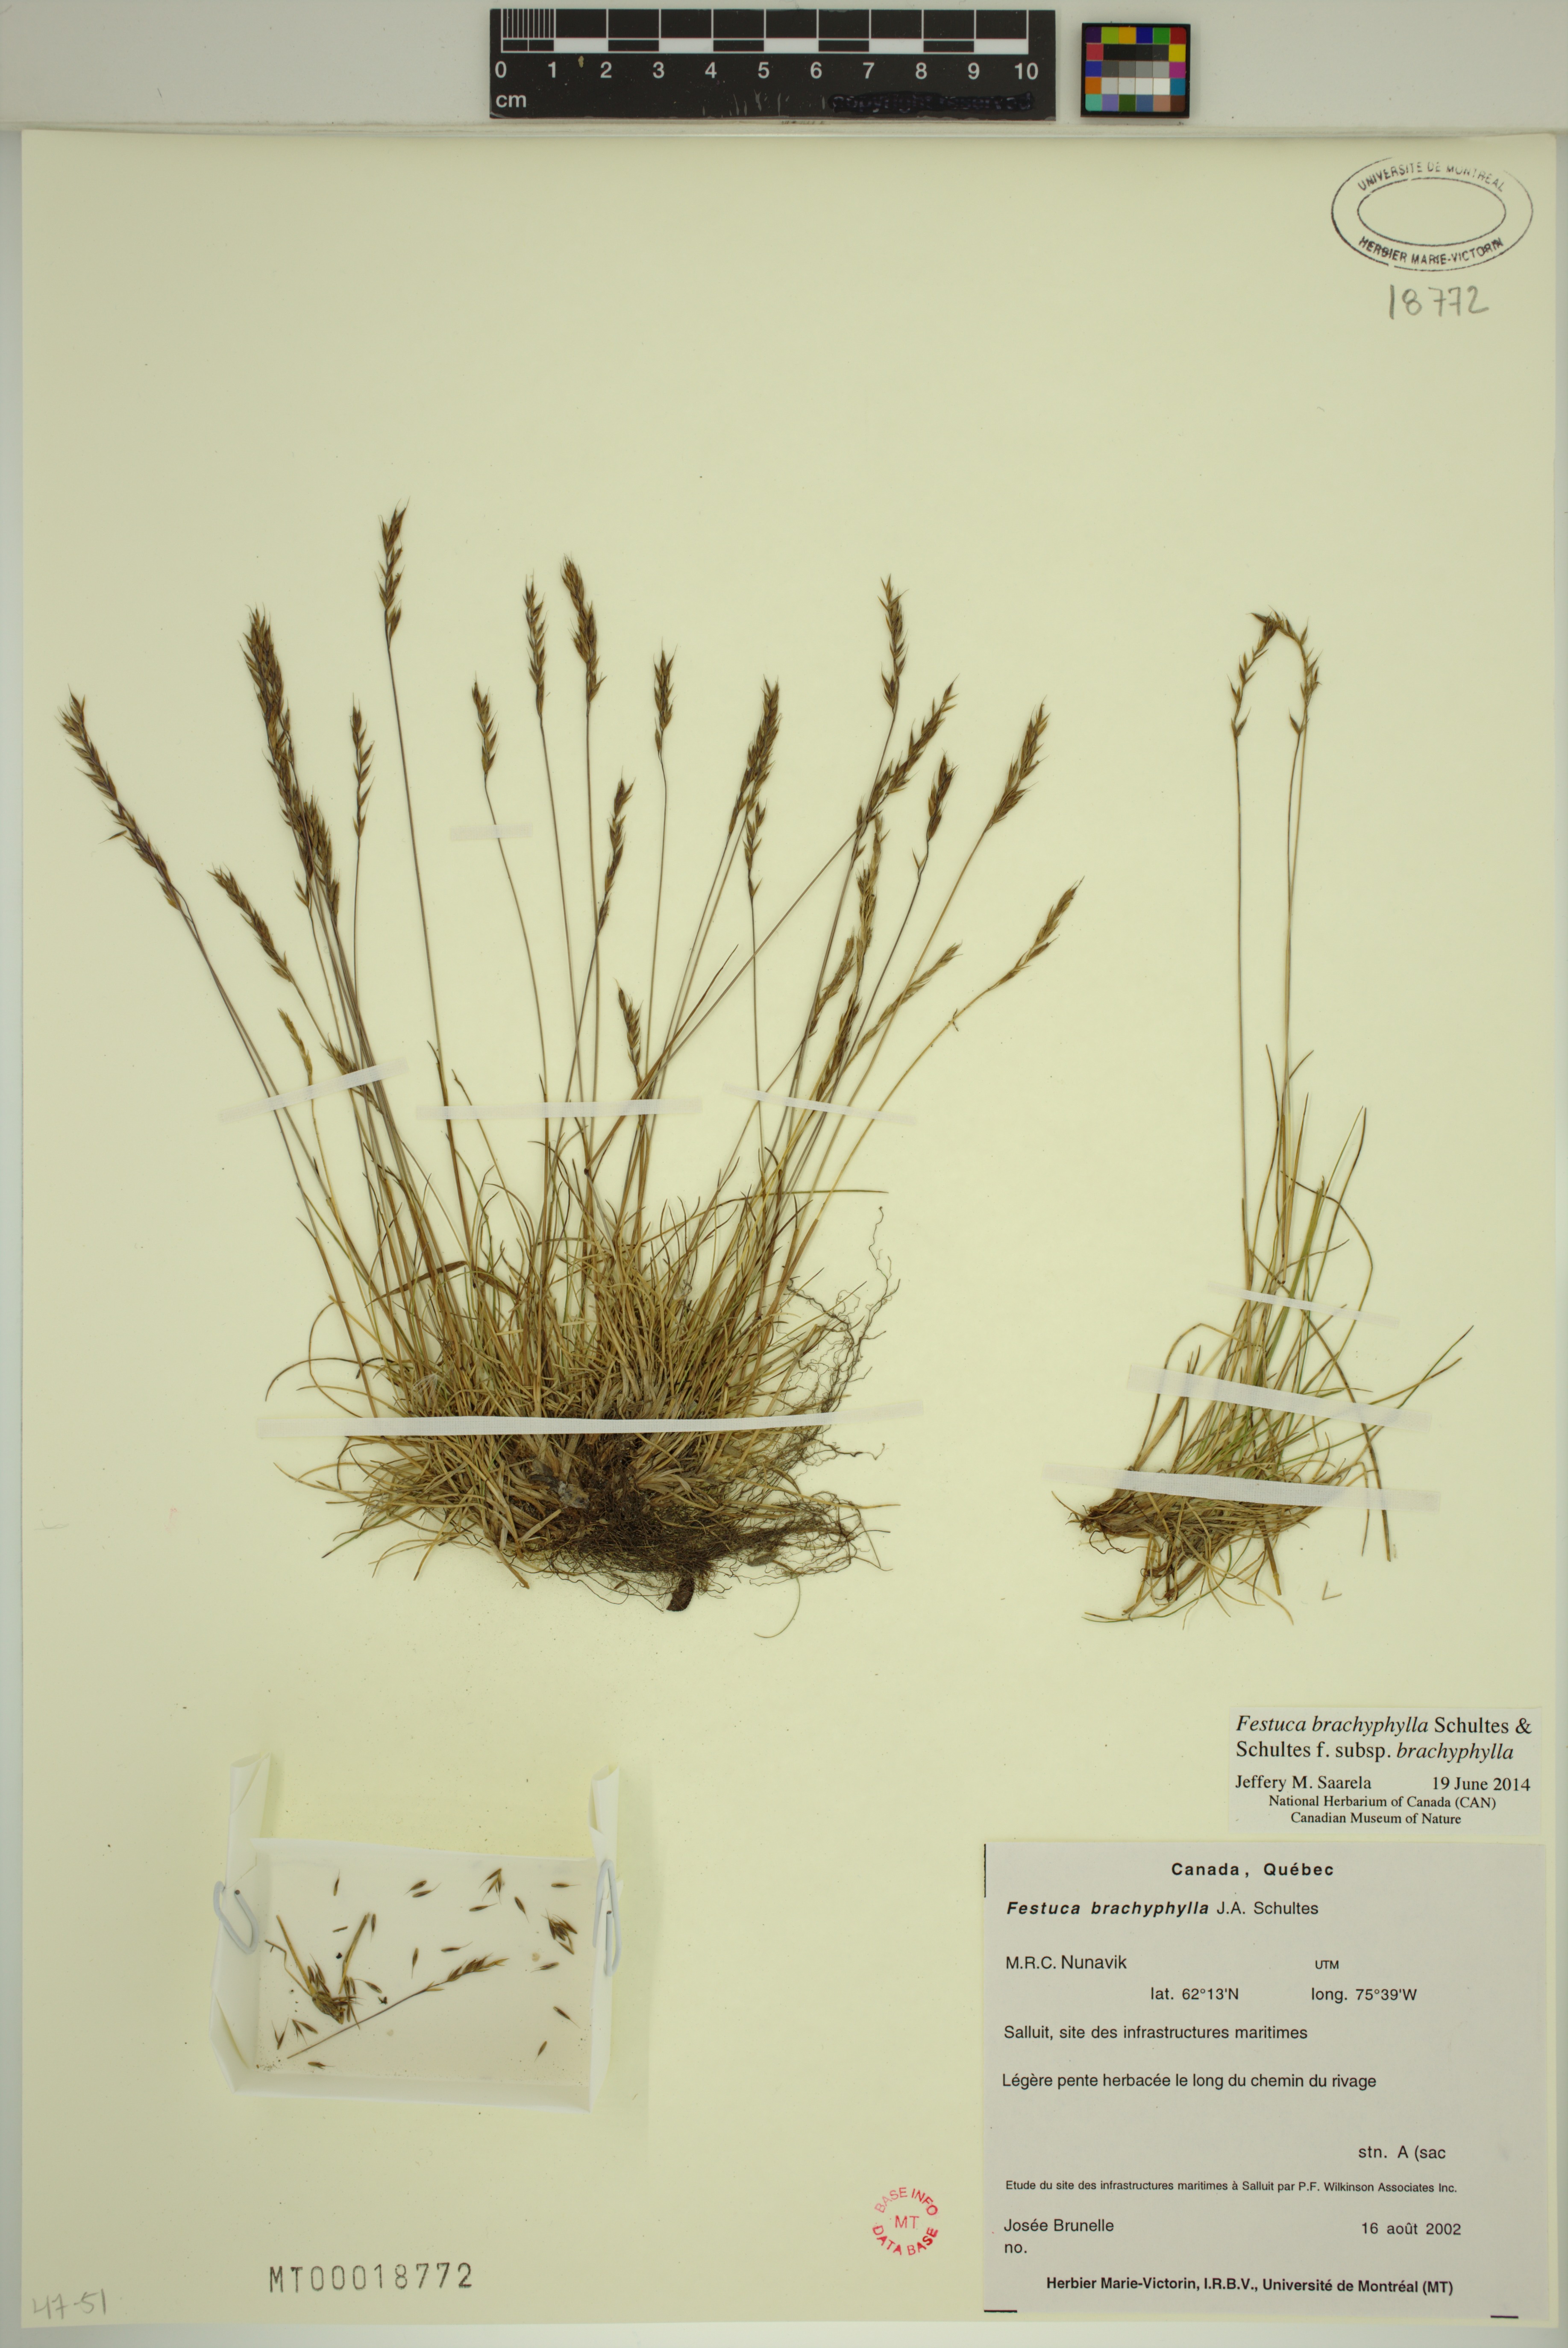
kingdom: Plantae
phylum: Tracheophyta
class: Liliopsida
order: Poales
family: Poaceae
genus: Festuca
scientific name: Festuca brachyphylla
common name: Alpine fescue
